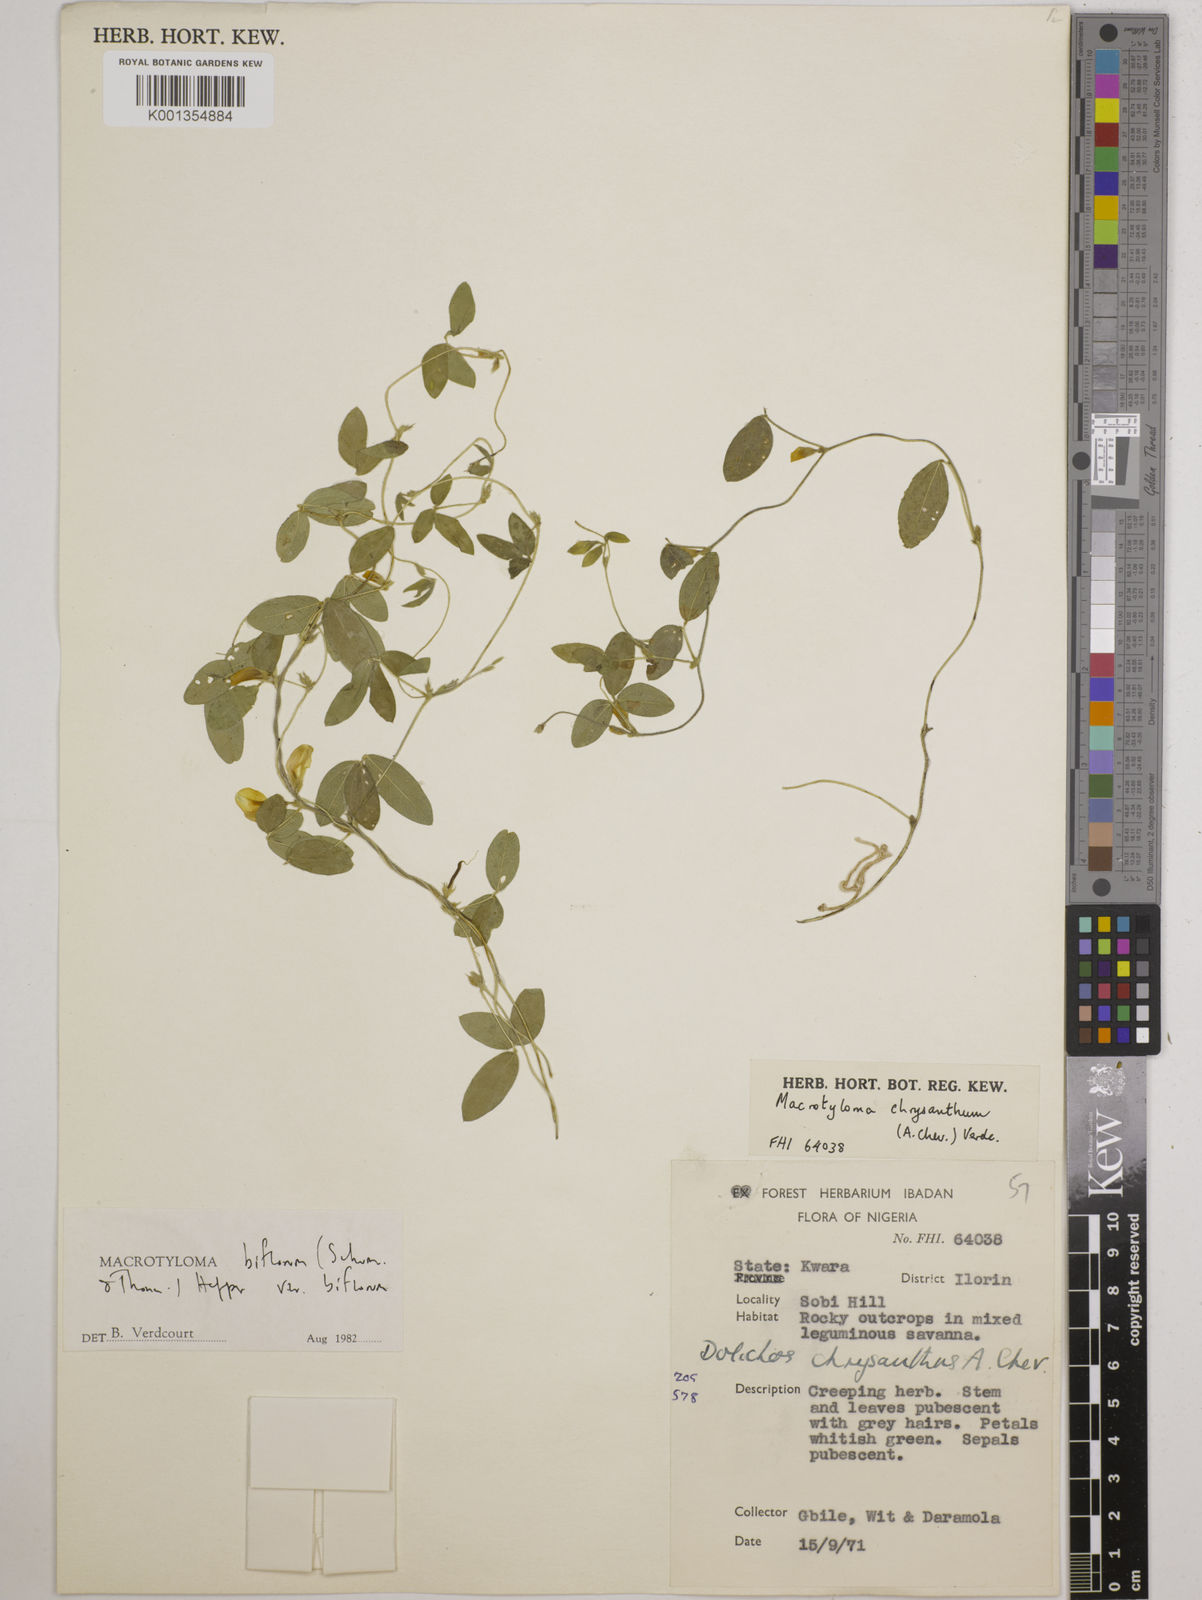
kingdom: Plantae
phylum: Tracheophyta
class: Magnoliopsida
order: Fabales
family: Fabaceae
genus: Macrotyloma
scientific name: Macrotyloma biflorum
